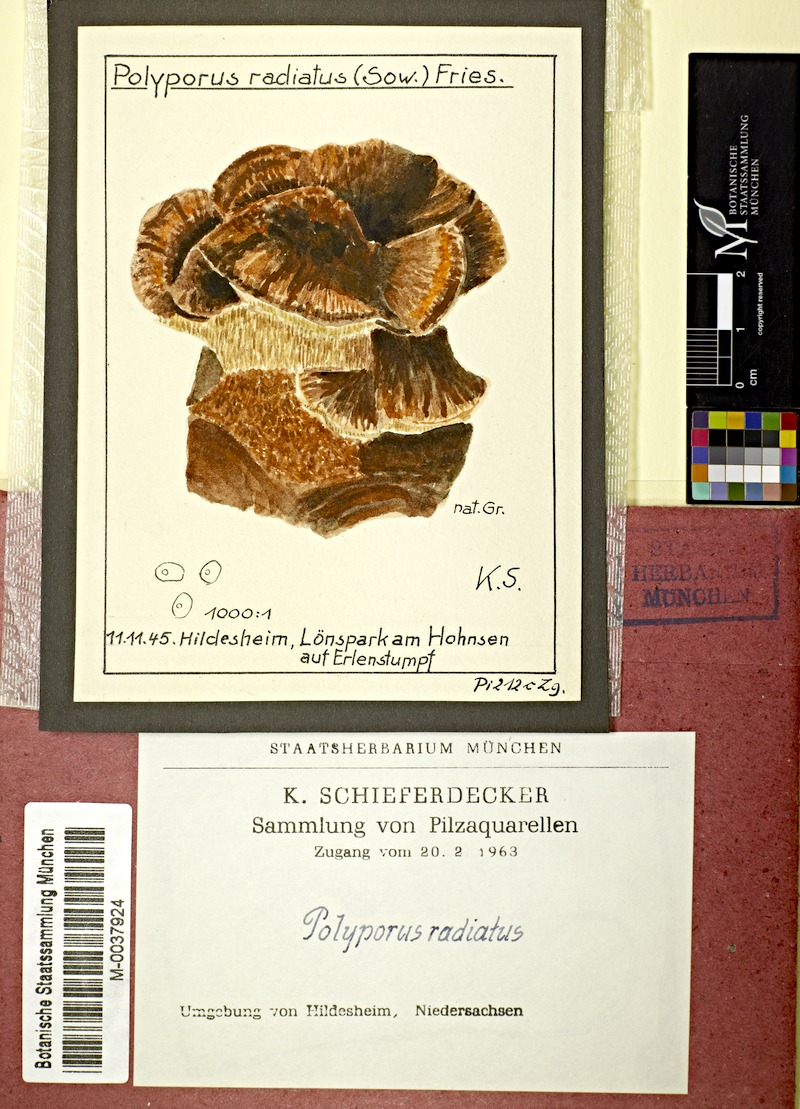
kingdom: Plantae
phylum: Tracheophyta
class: Magnoliopsida
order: Fagales
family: Betulaceae
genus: Alnus
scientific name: Alnus
